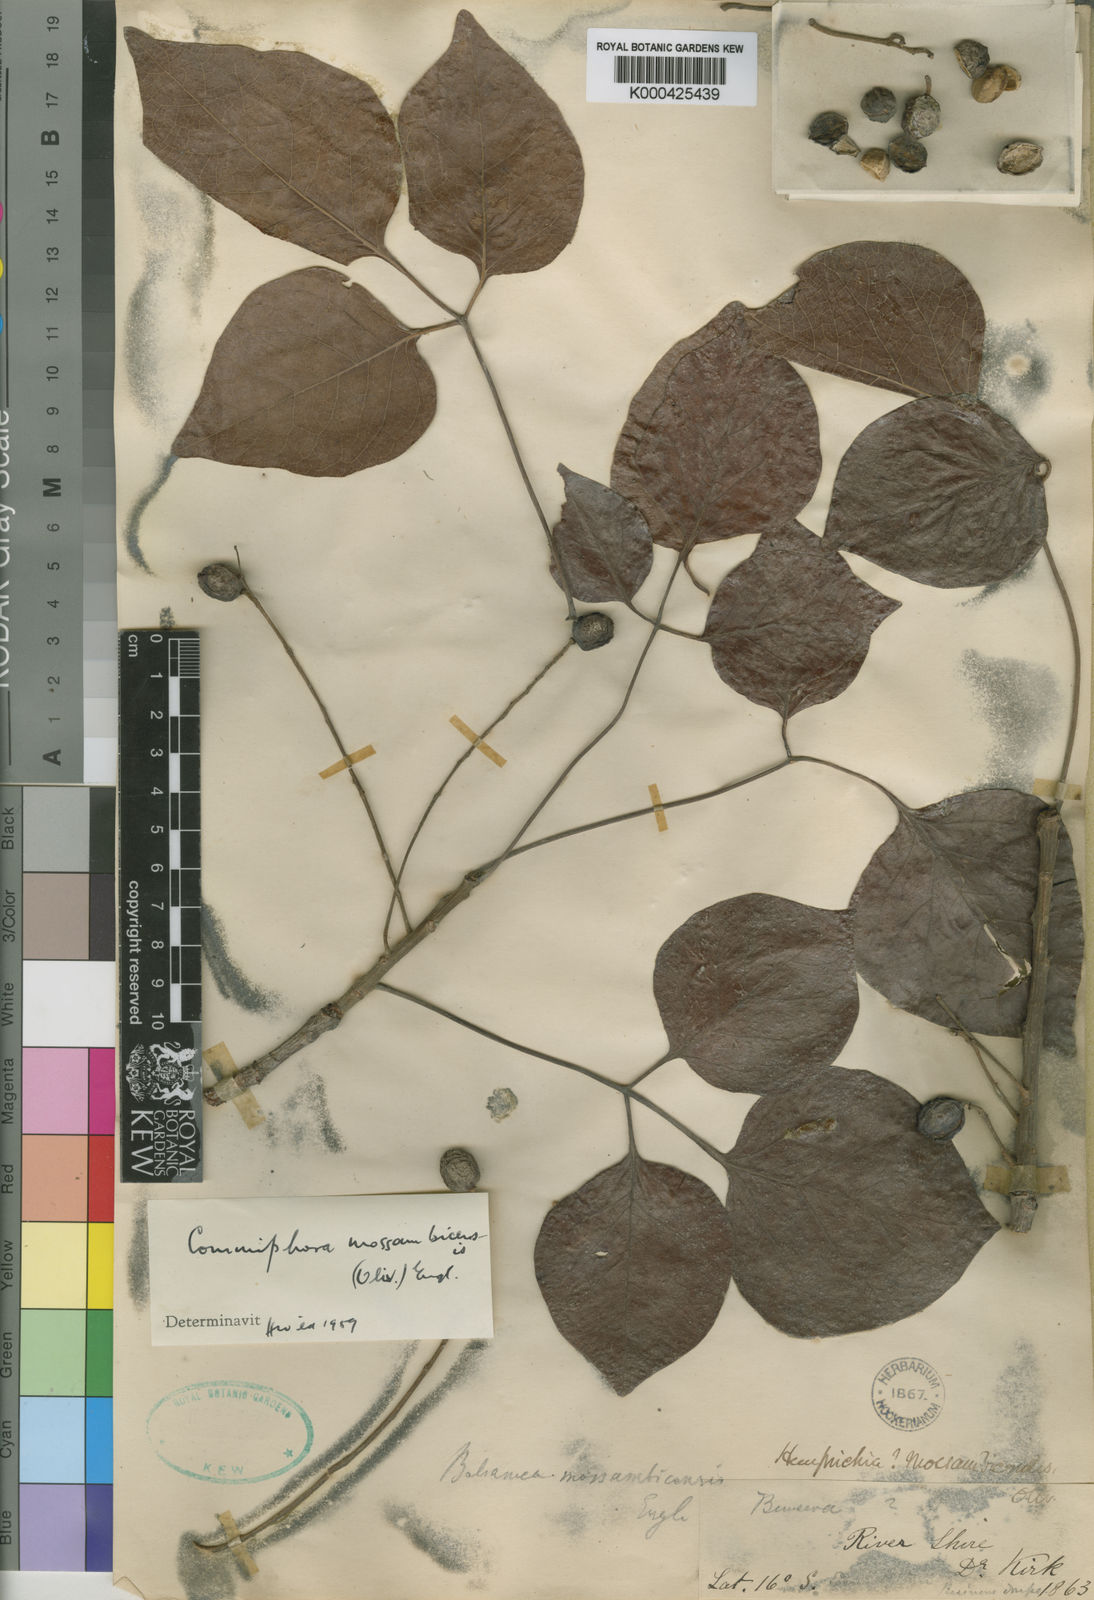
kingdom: Plantae
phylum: Tracheophyta
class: Magnoliopsida
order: Sapindales
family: Burseraceae
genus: Commiphora
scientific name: Commiphora mossambicensis
